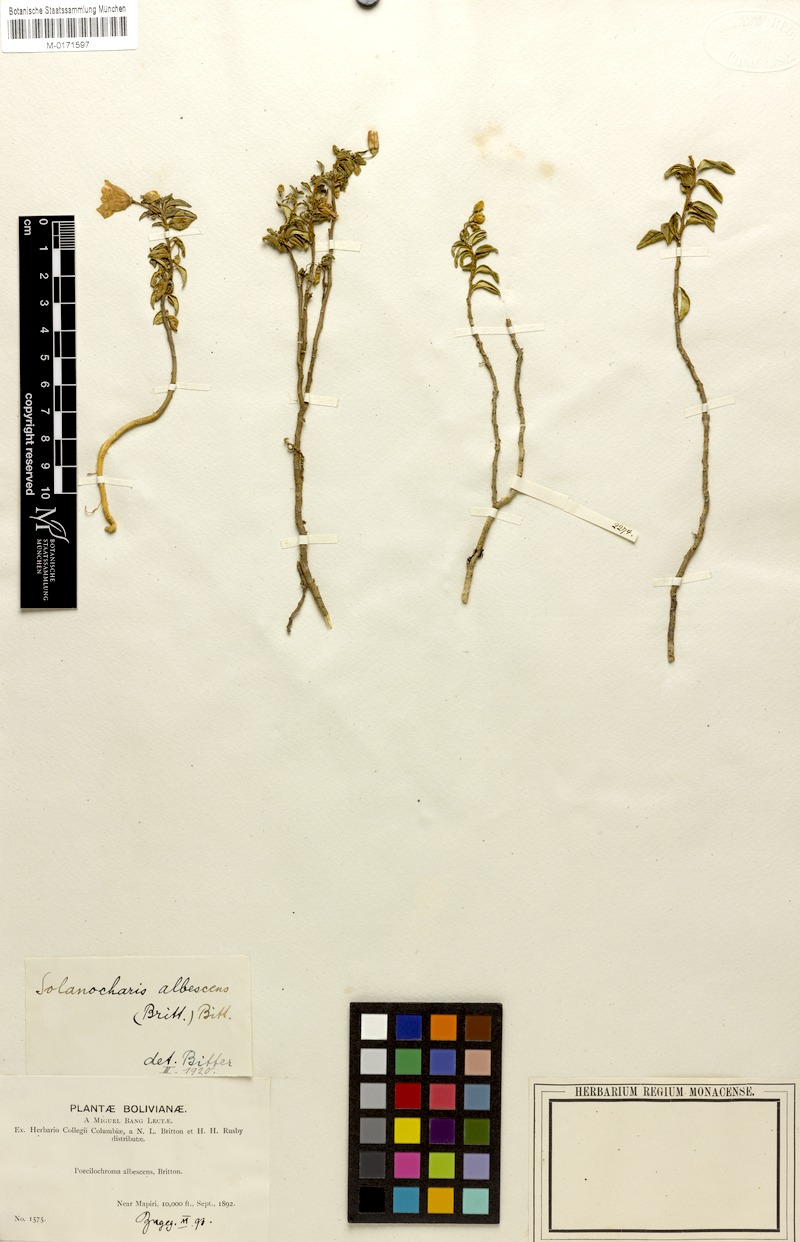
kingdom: Plantae
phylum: Tracheophyta
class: Magnoliopsida
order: Solanales
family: Solanaceae
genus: Solanum
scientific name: Solanum albescens
